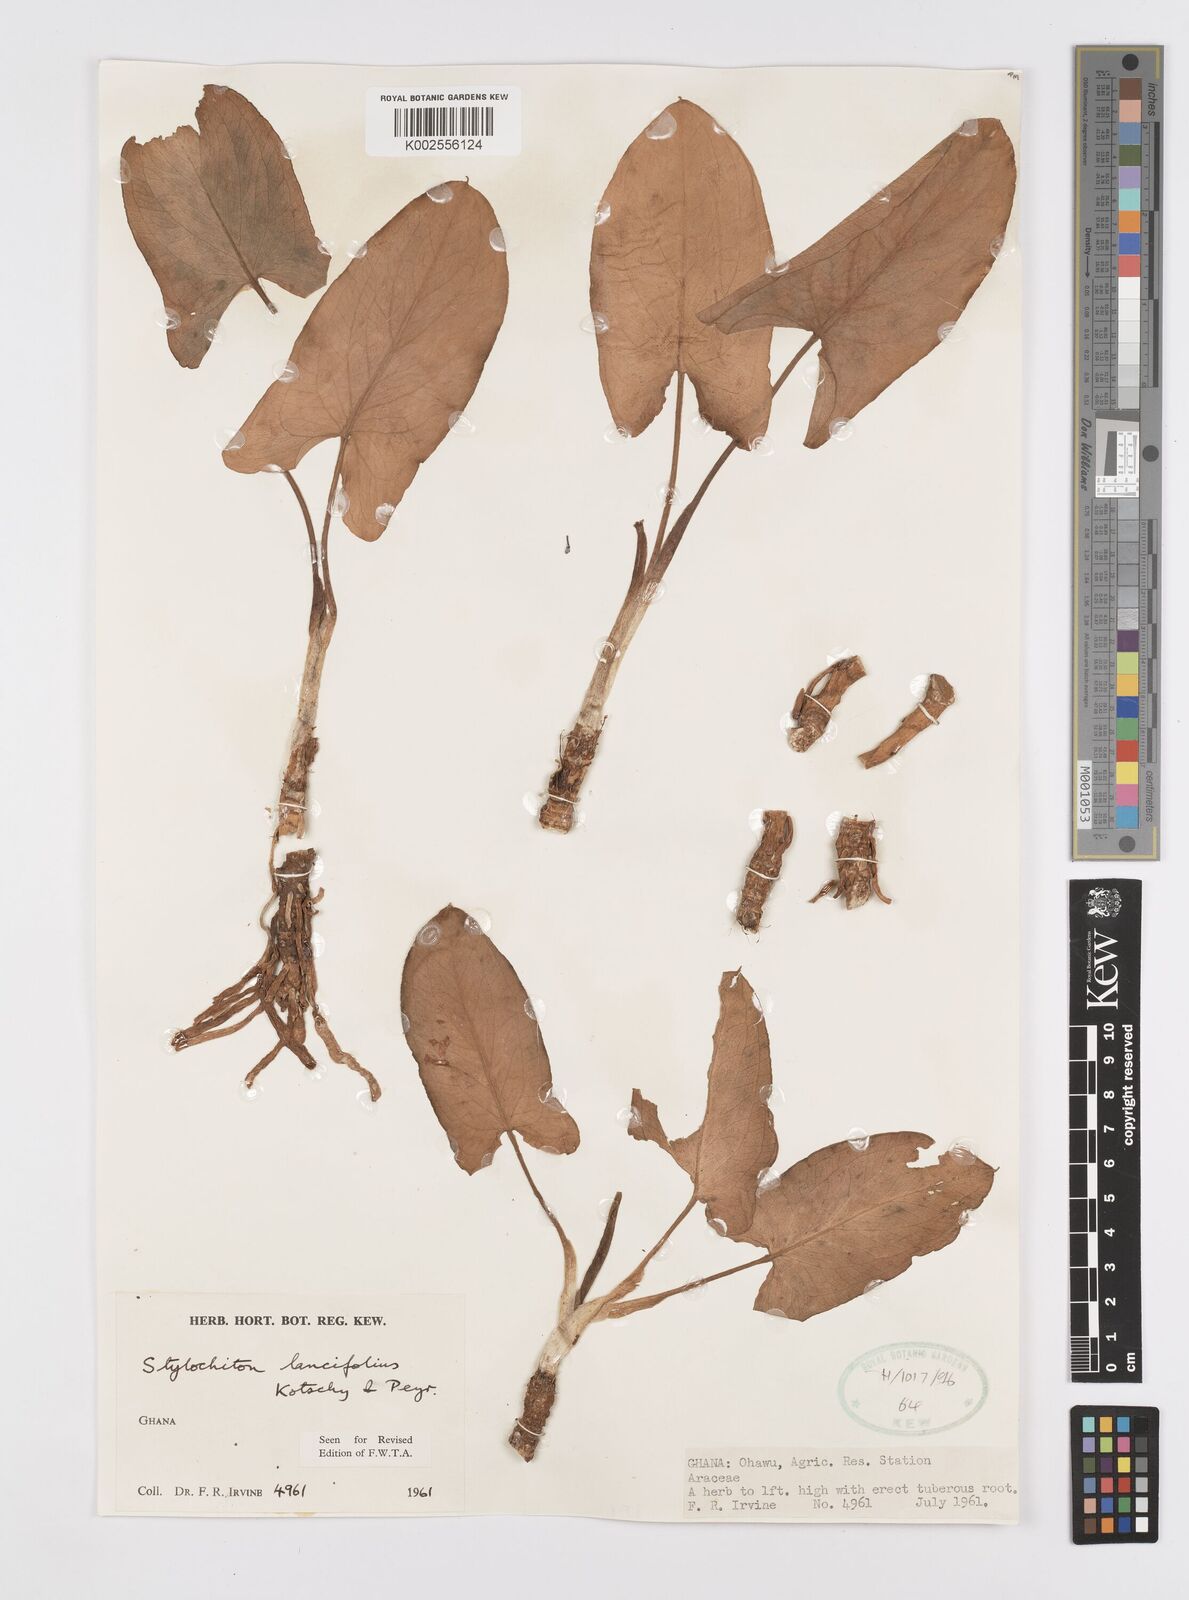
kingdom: Plantae
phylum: Tracheophyta
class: Liliopsida
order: Alismatales
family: Araceae
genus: Stylochaeton
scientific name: Stylochaeton lancifolium
